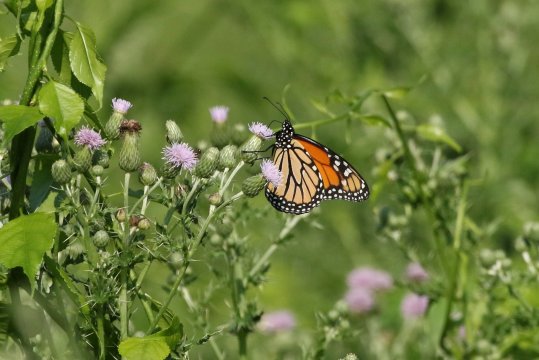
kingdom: Animalia
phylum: Arthropoda
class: Insecta
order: Lepidoptera
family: Nymphalidae
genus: Danaus
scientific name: Danaus plexippus
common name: Monarch
